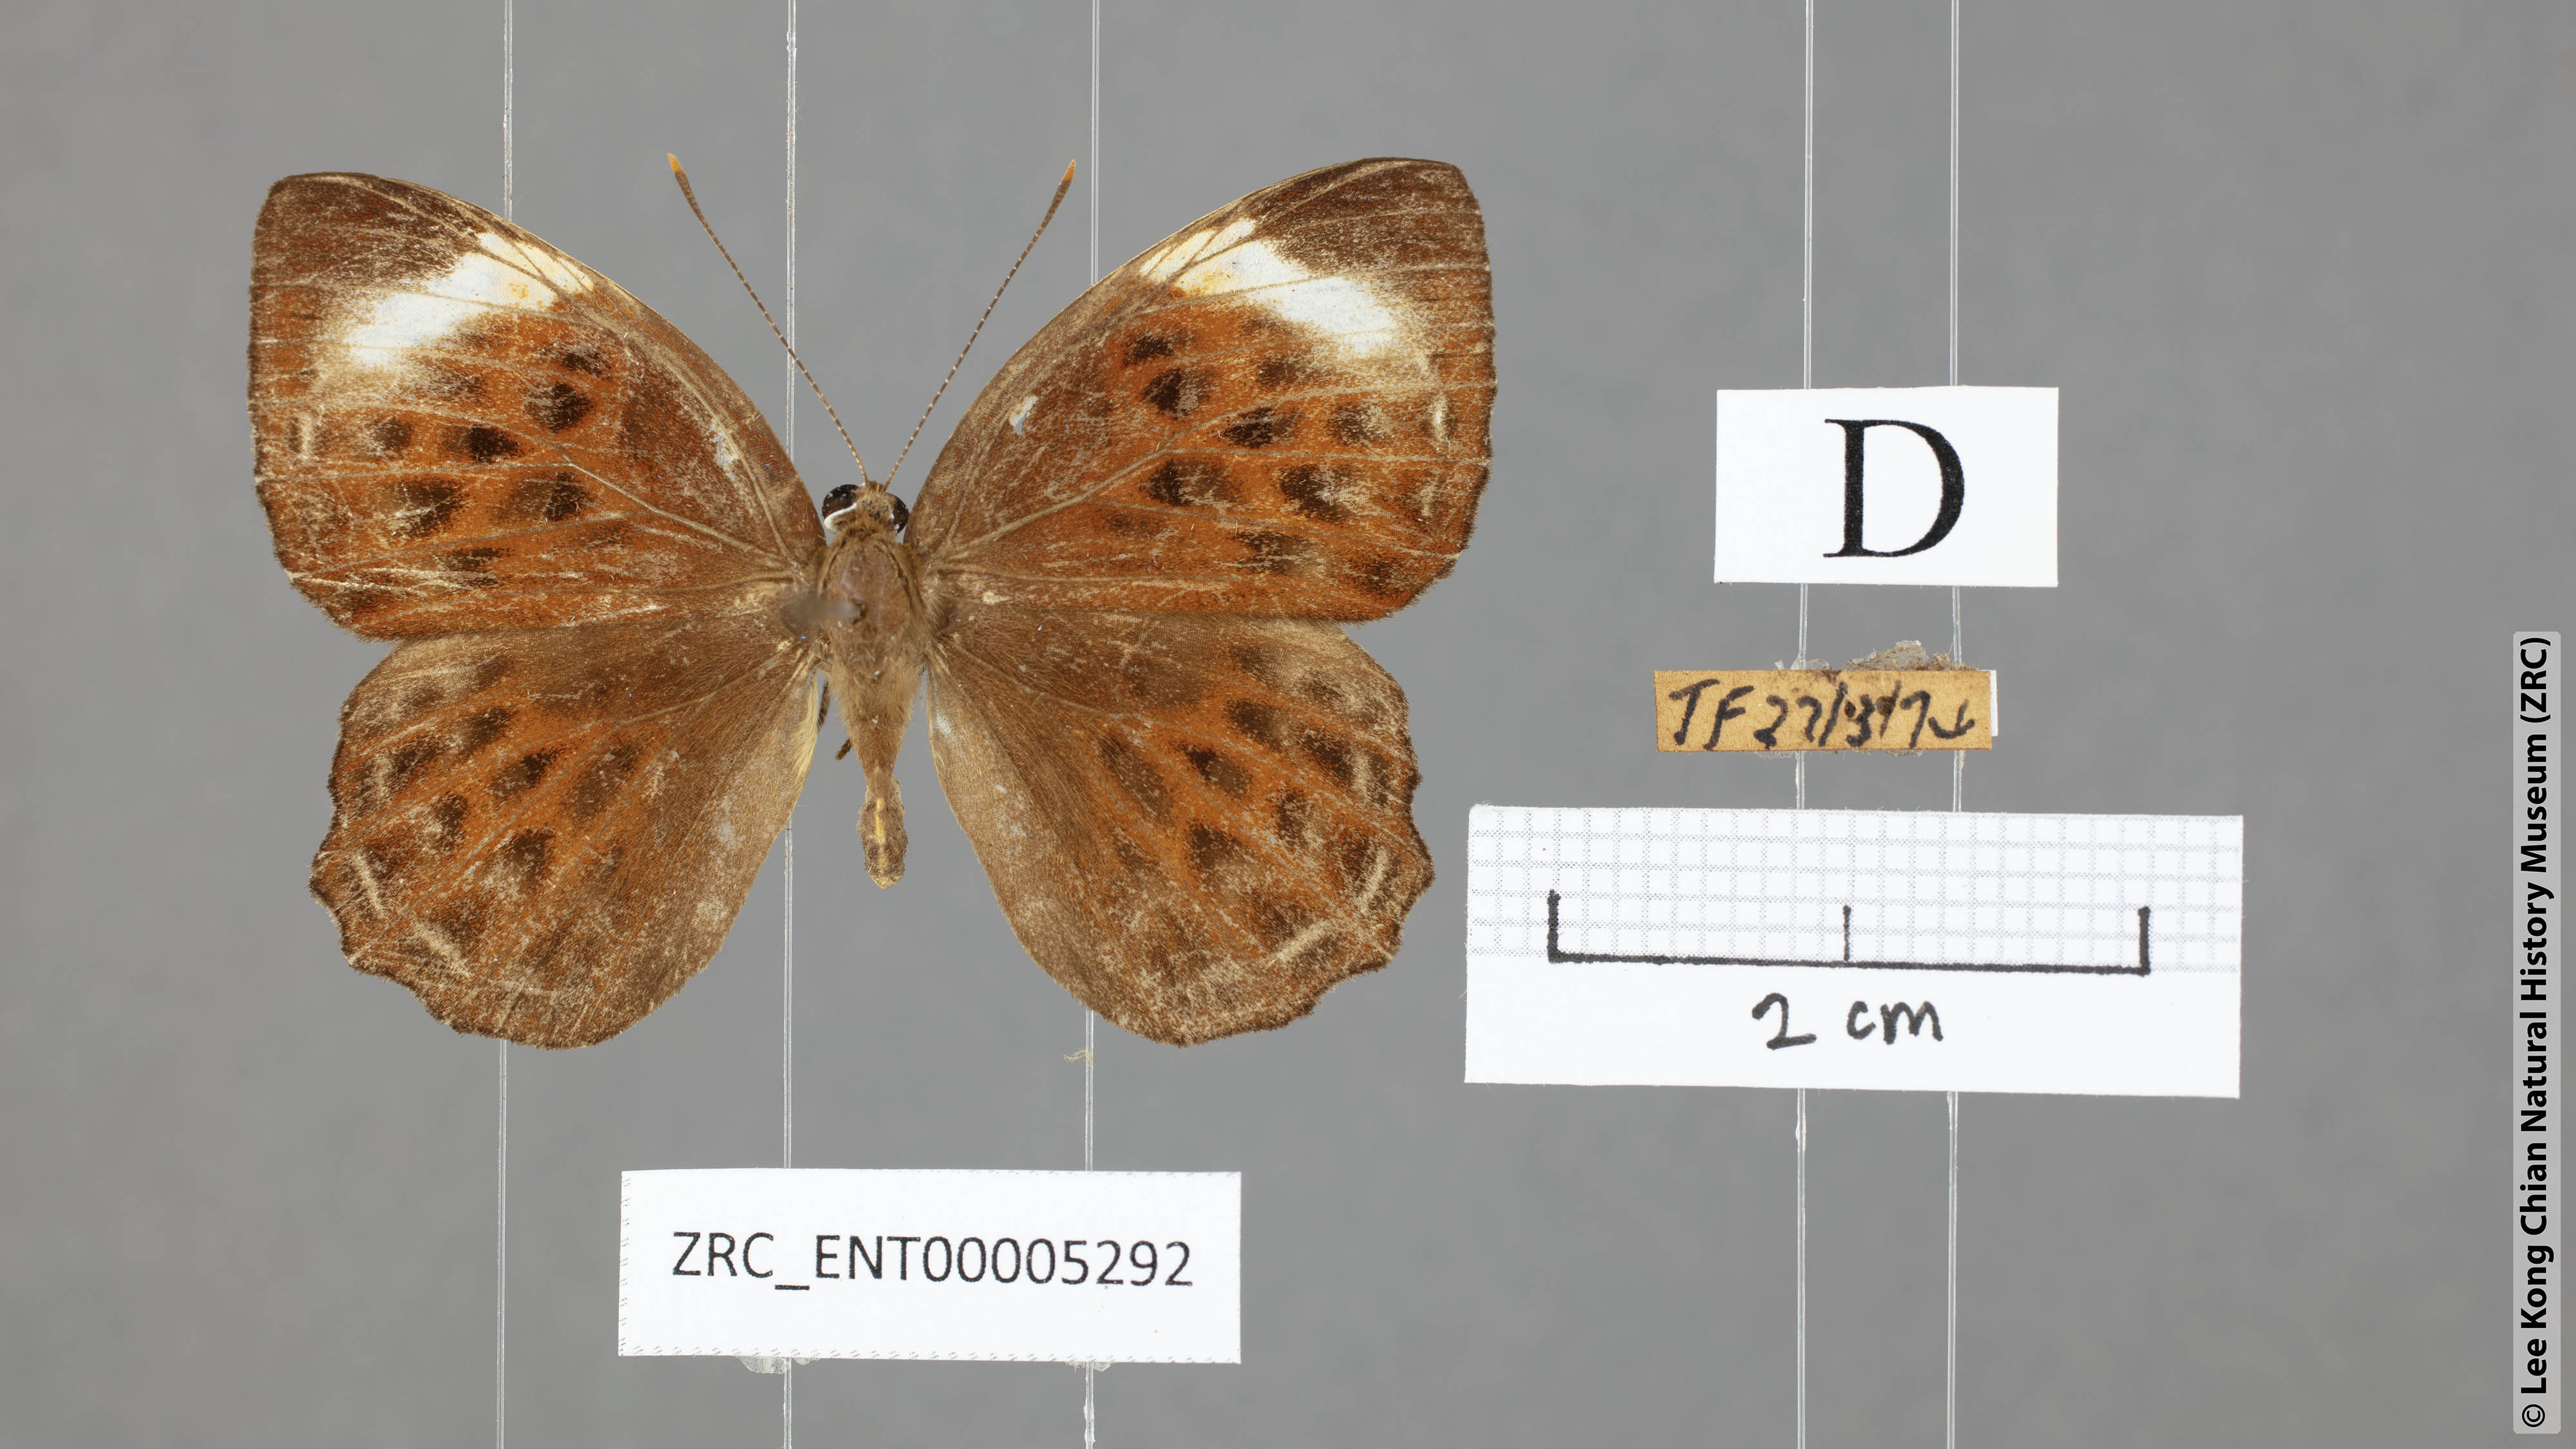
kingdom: Animalia
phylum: Arthropoda
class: Insecta
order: Lepidoptera
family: Riodinidae
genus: Laxita
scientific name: Laxita thuisto
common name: Lesser harlequin
